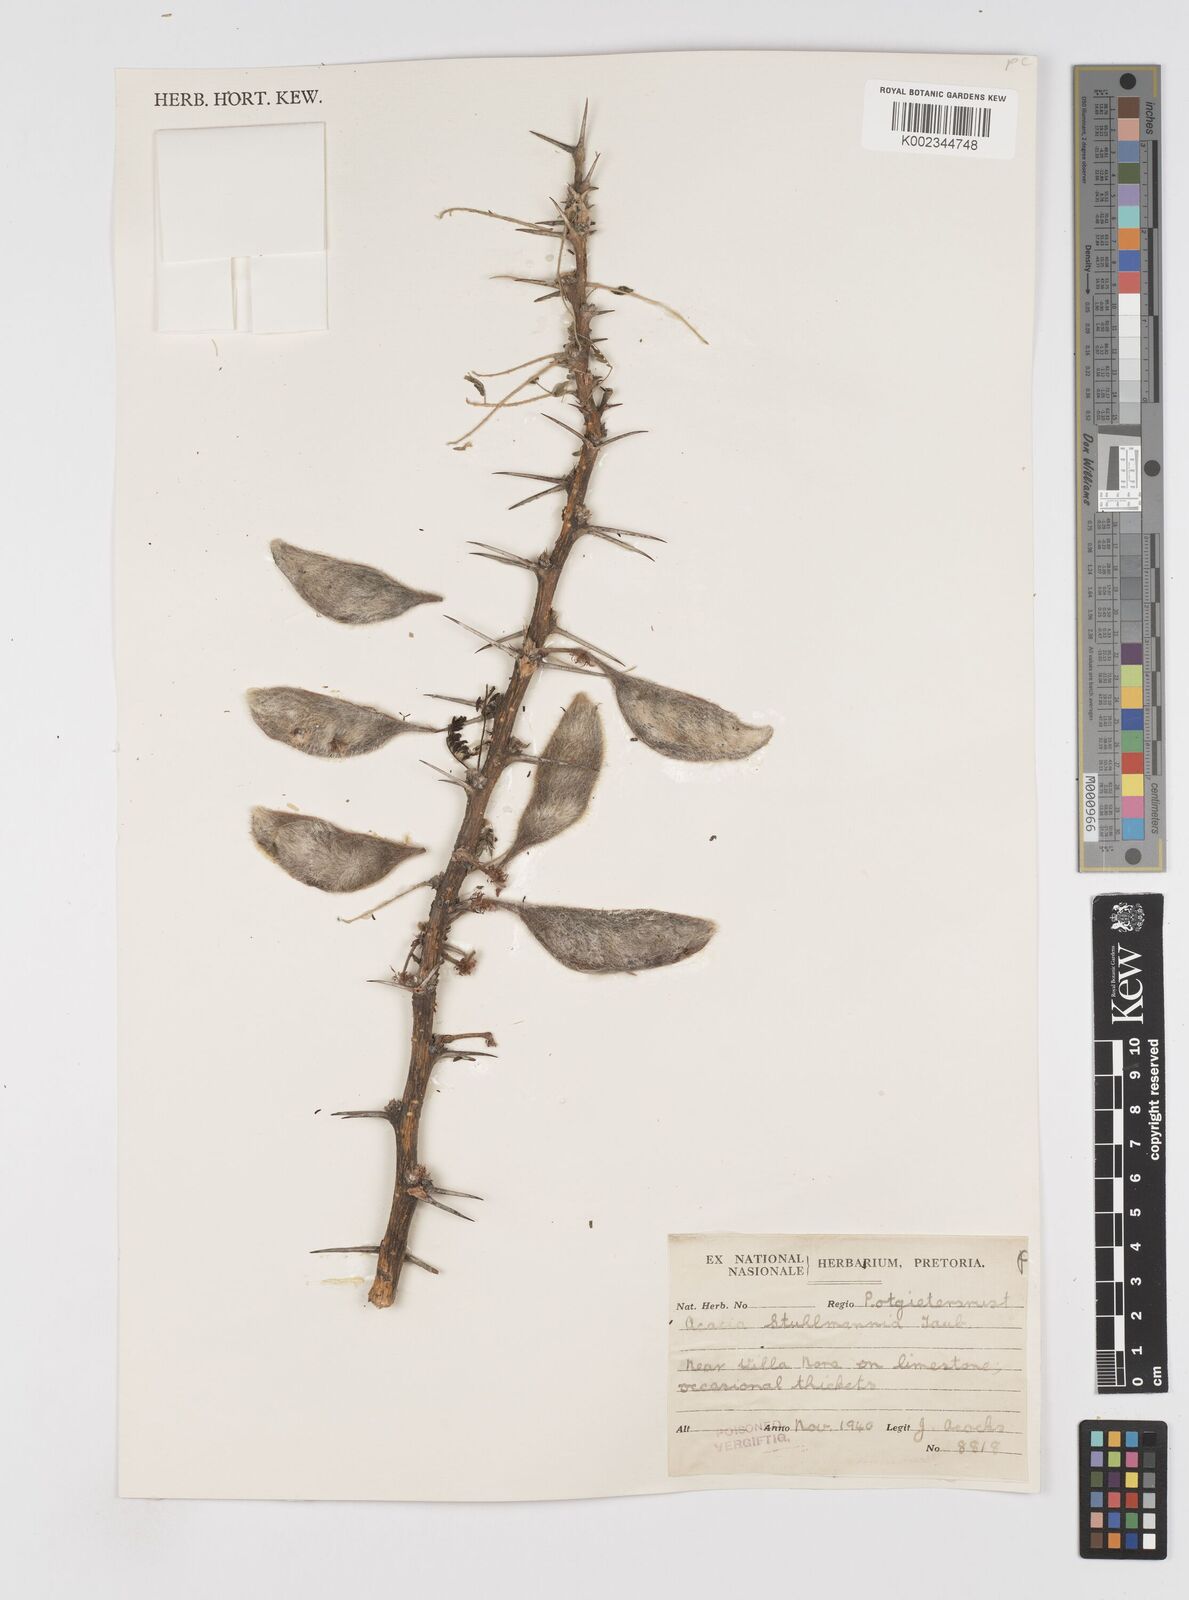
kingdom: Plantae
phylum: Tracheophyta
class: Magnoliopsida
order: Fabales
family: Fabaceae
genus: Vachellia
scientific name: Vachellia stuhlmannii
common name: Vlei thorn
